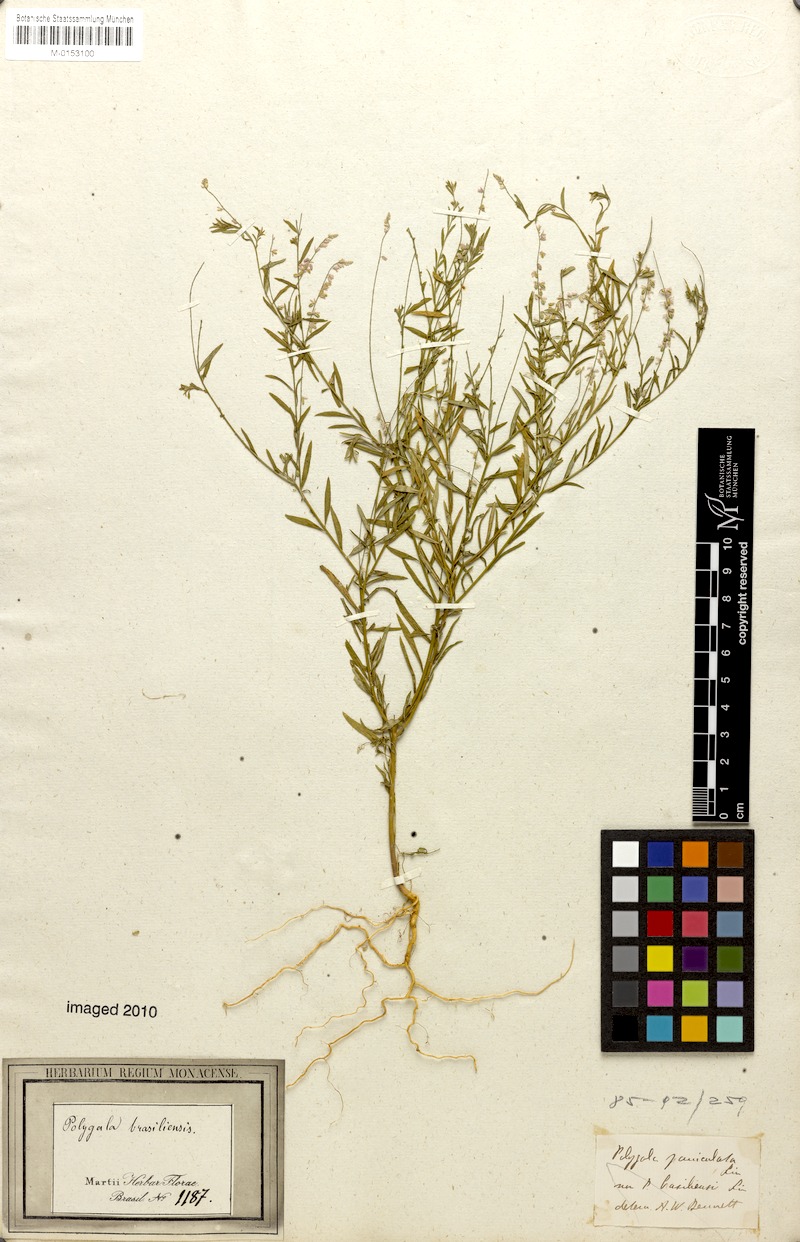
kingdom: Plantae
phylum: Tracheophyta
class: Magnoliopsida
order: Fabales
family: Polygalaceae
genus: Polygala
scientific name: Polygala brasiliensis
